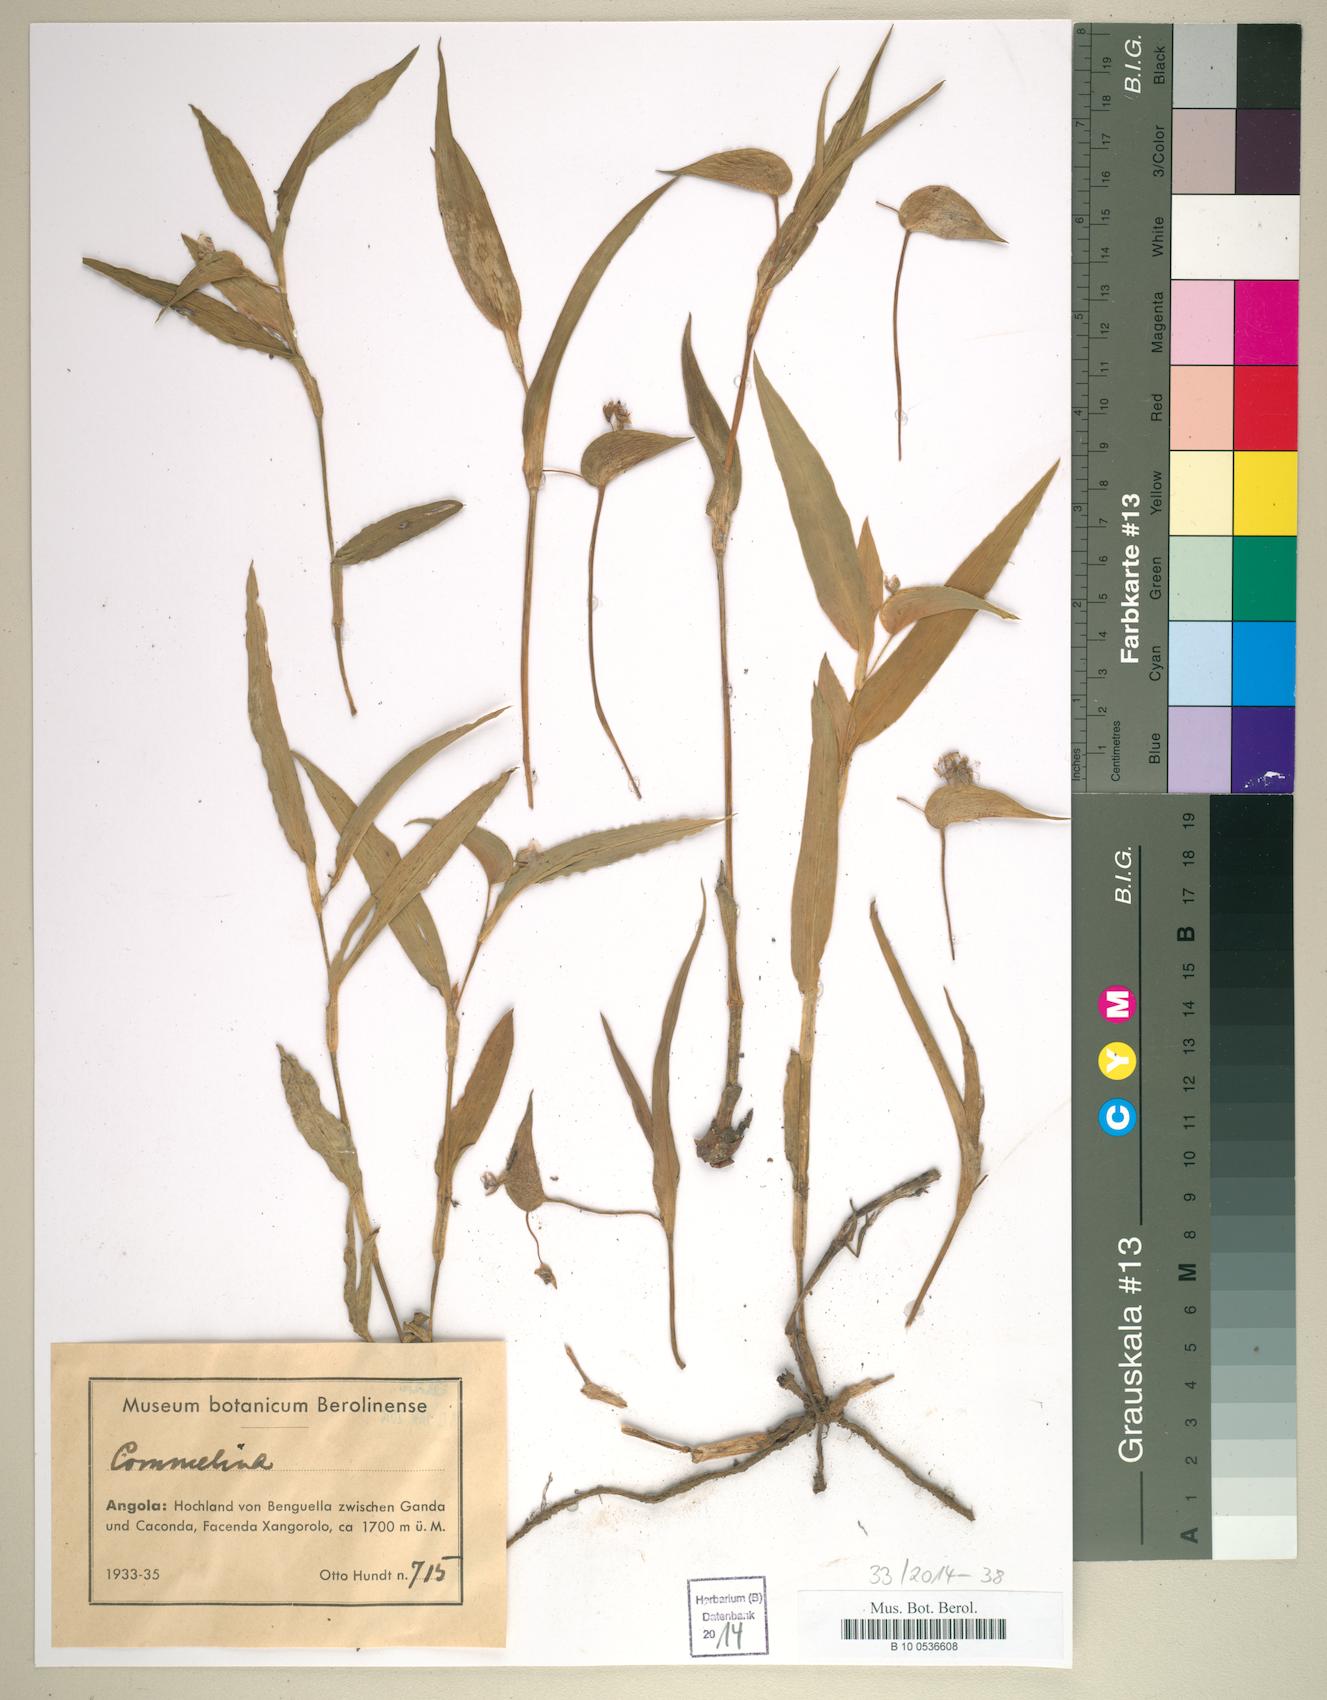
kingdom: Plantae
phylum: Tracheophyta
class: Liliopsida
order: Commelinales
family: Commelinaceae
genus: Commelina
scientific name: Commelina
